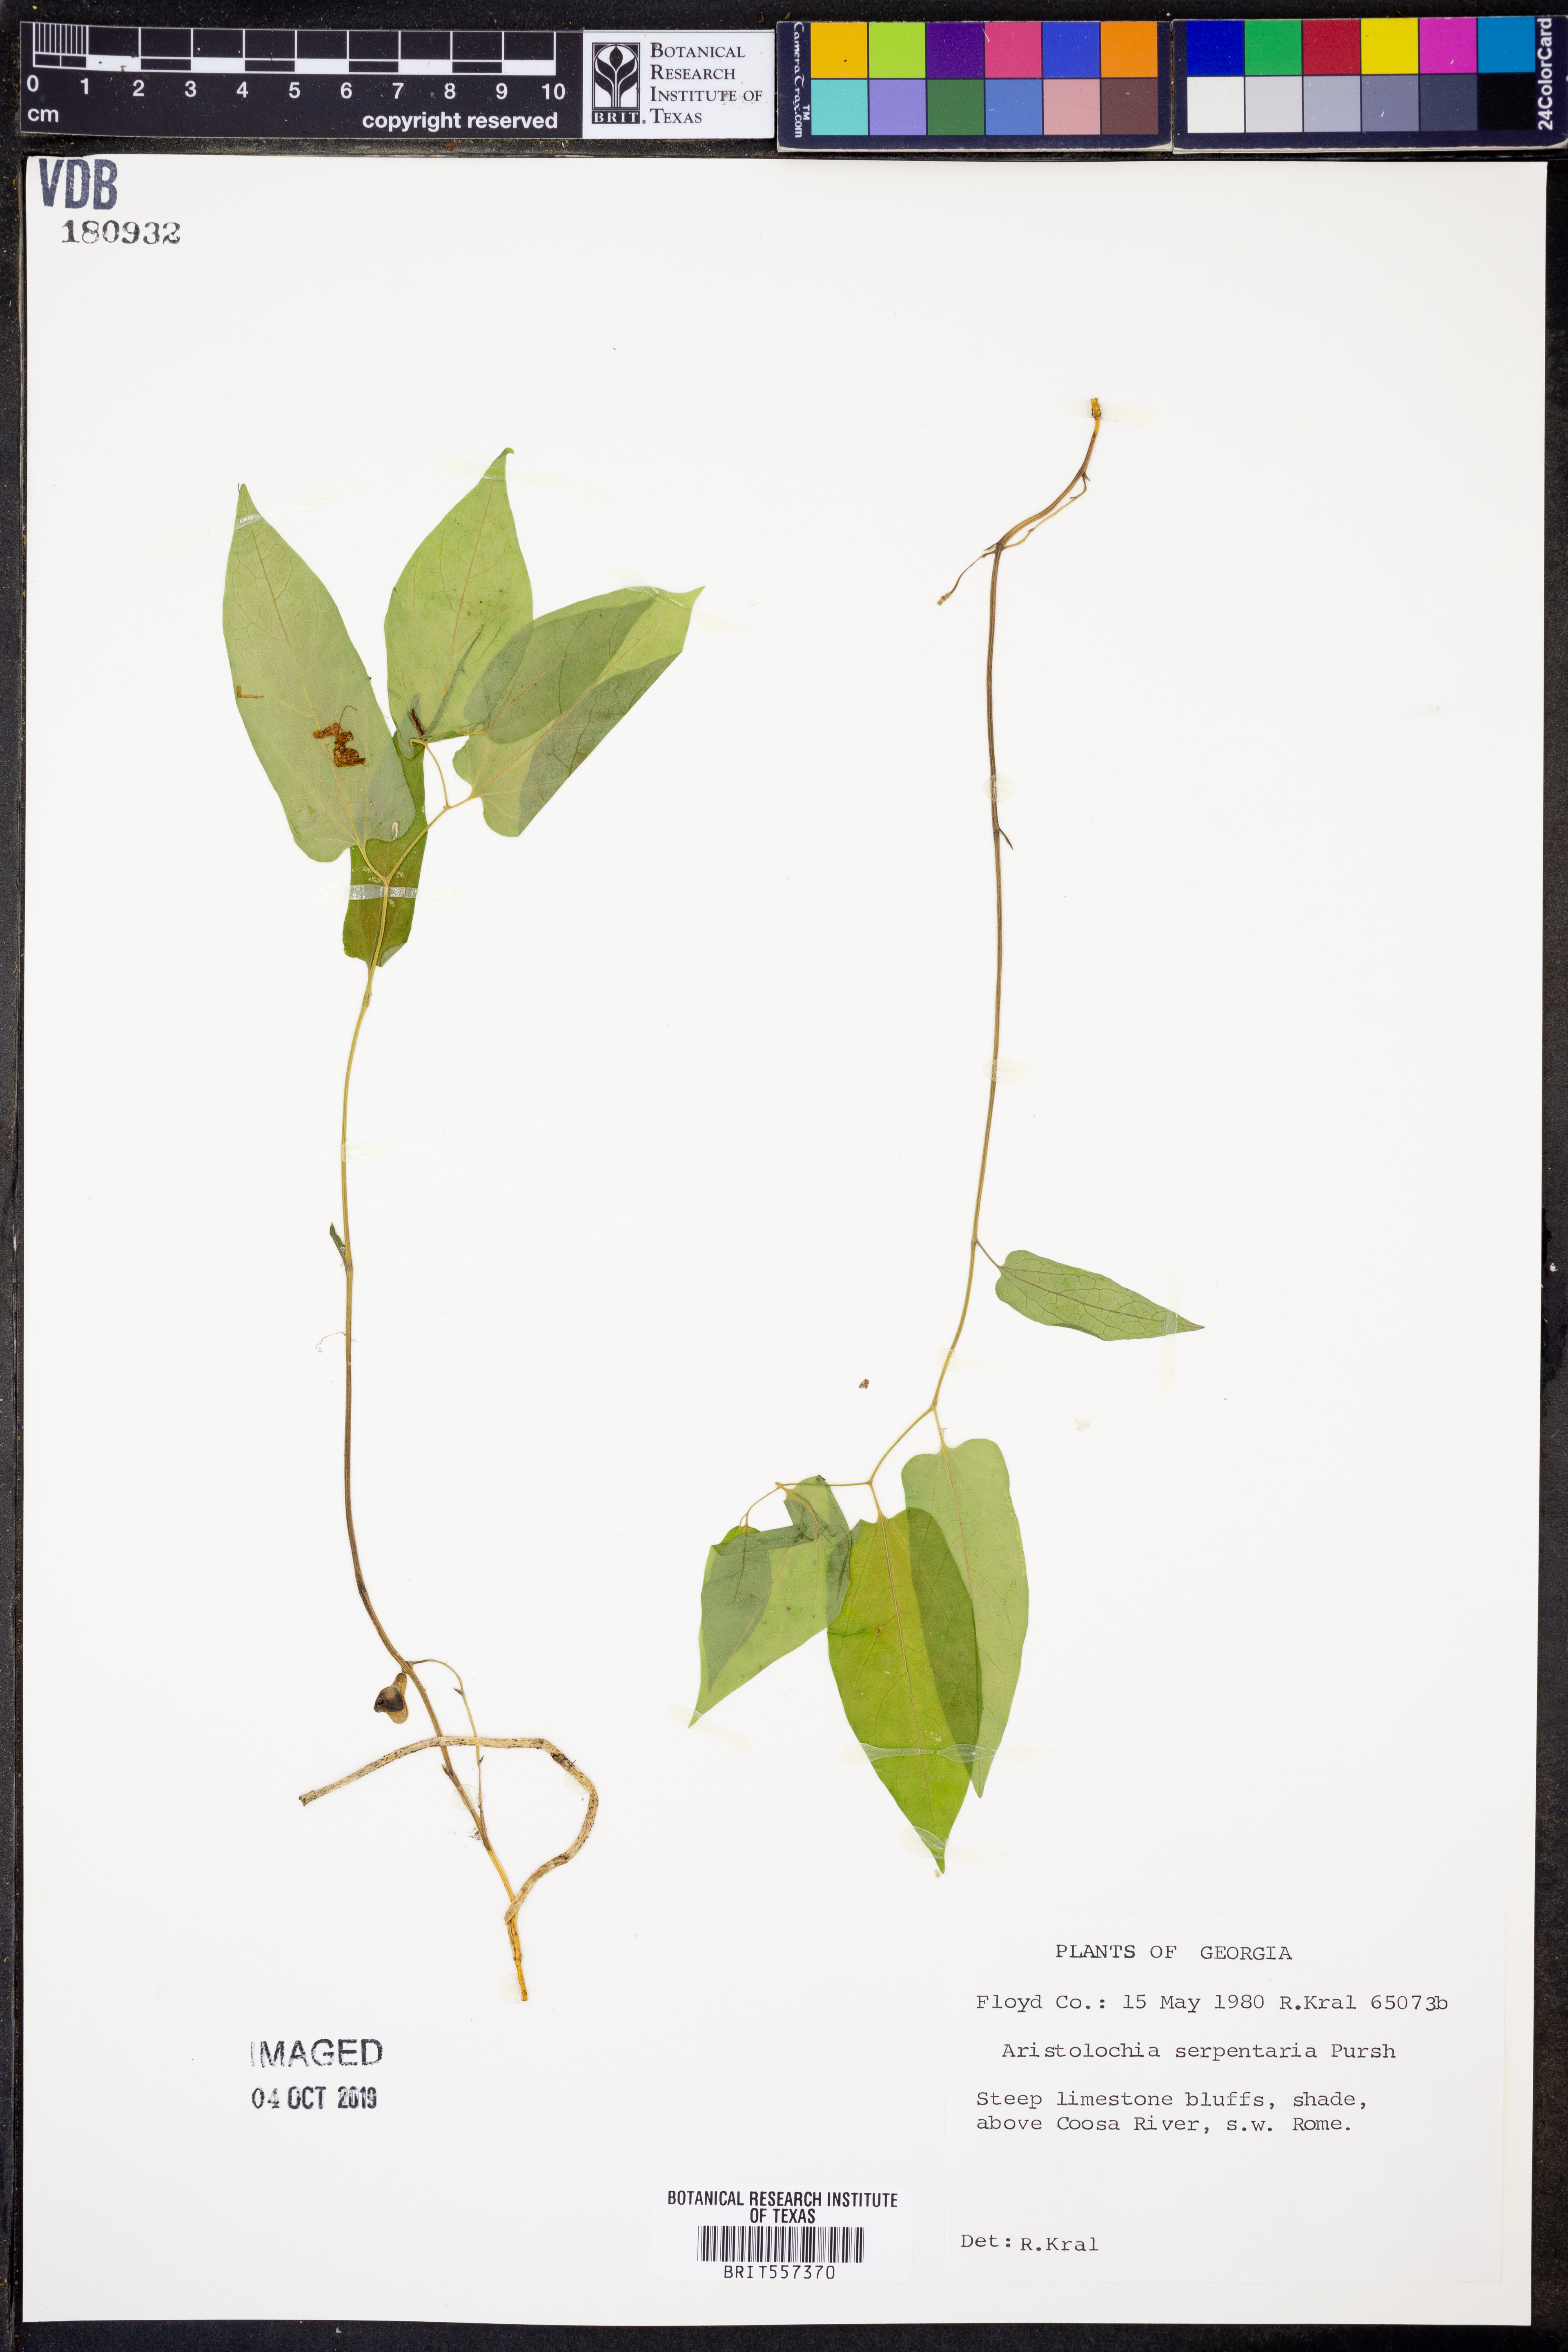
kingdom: Plantae
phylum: Tracheophyta
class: Magnoliopsida
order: Piperales
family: Aristolochiaceae
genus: Endodeca
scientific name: Endodeca serpentaria
